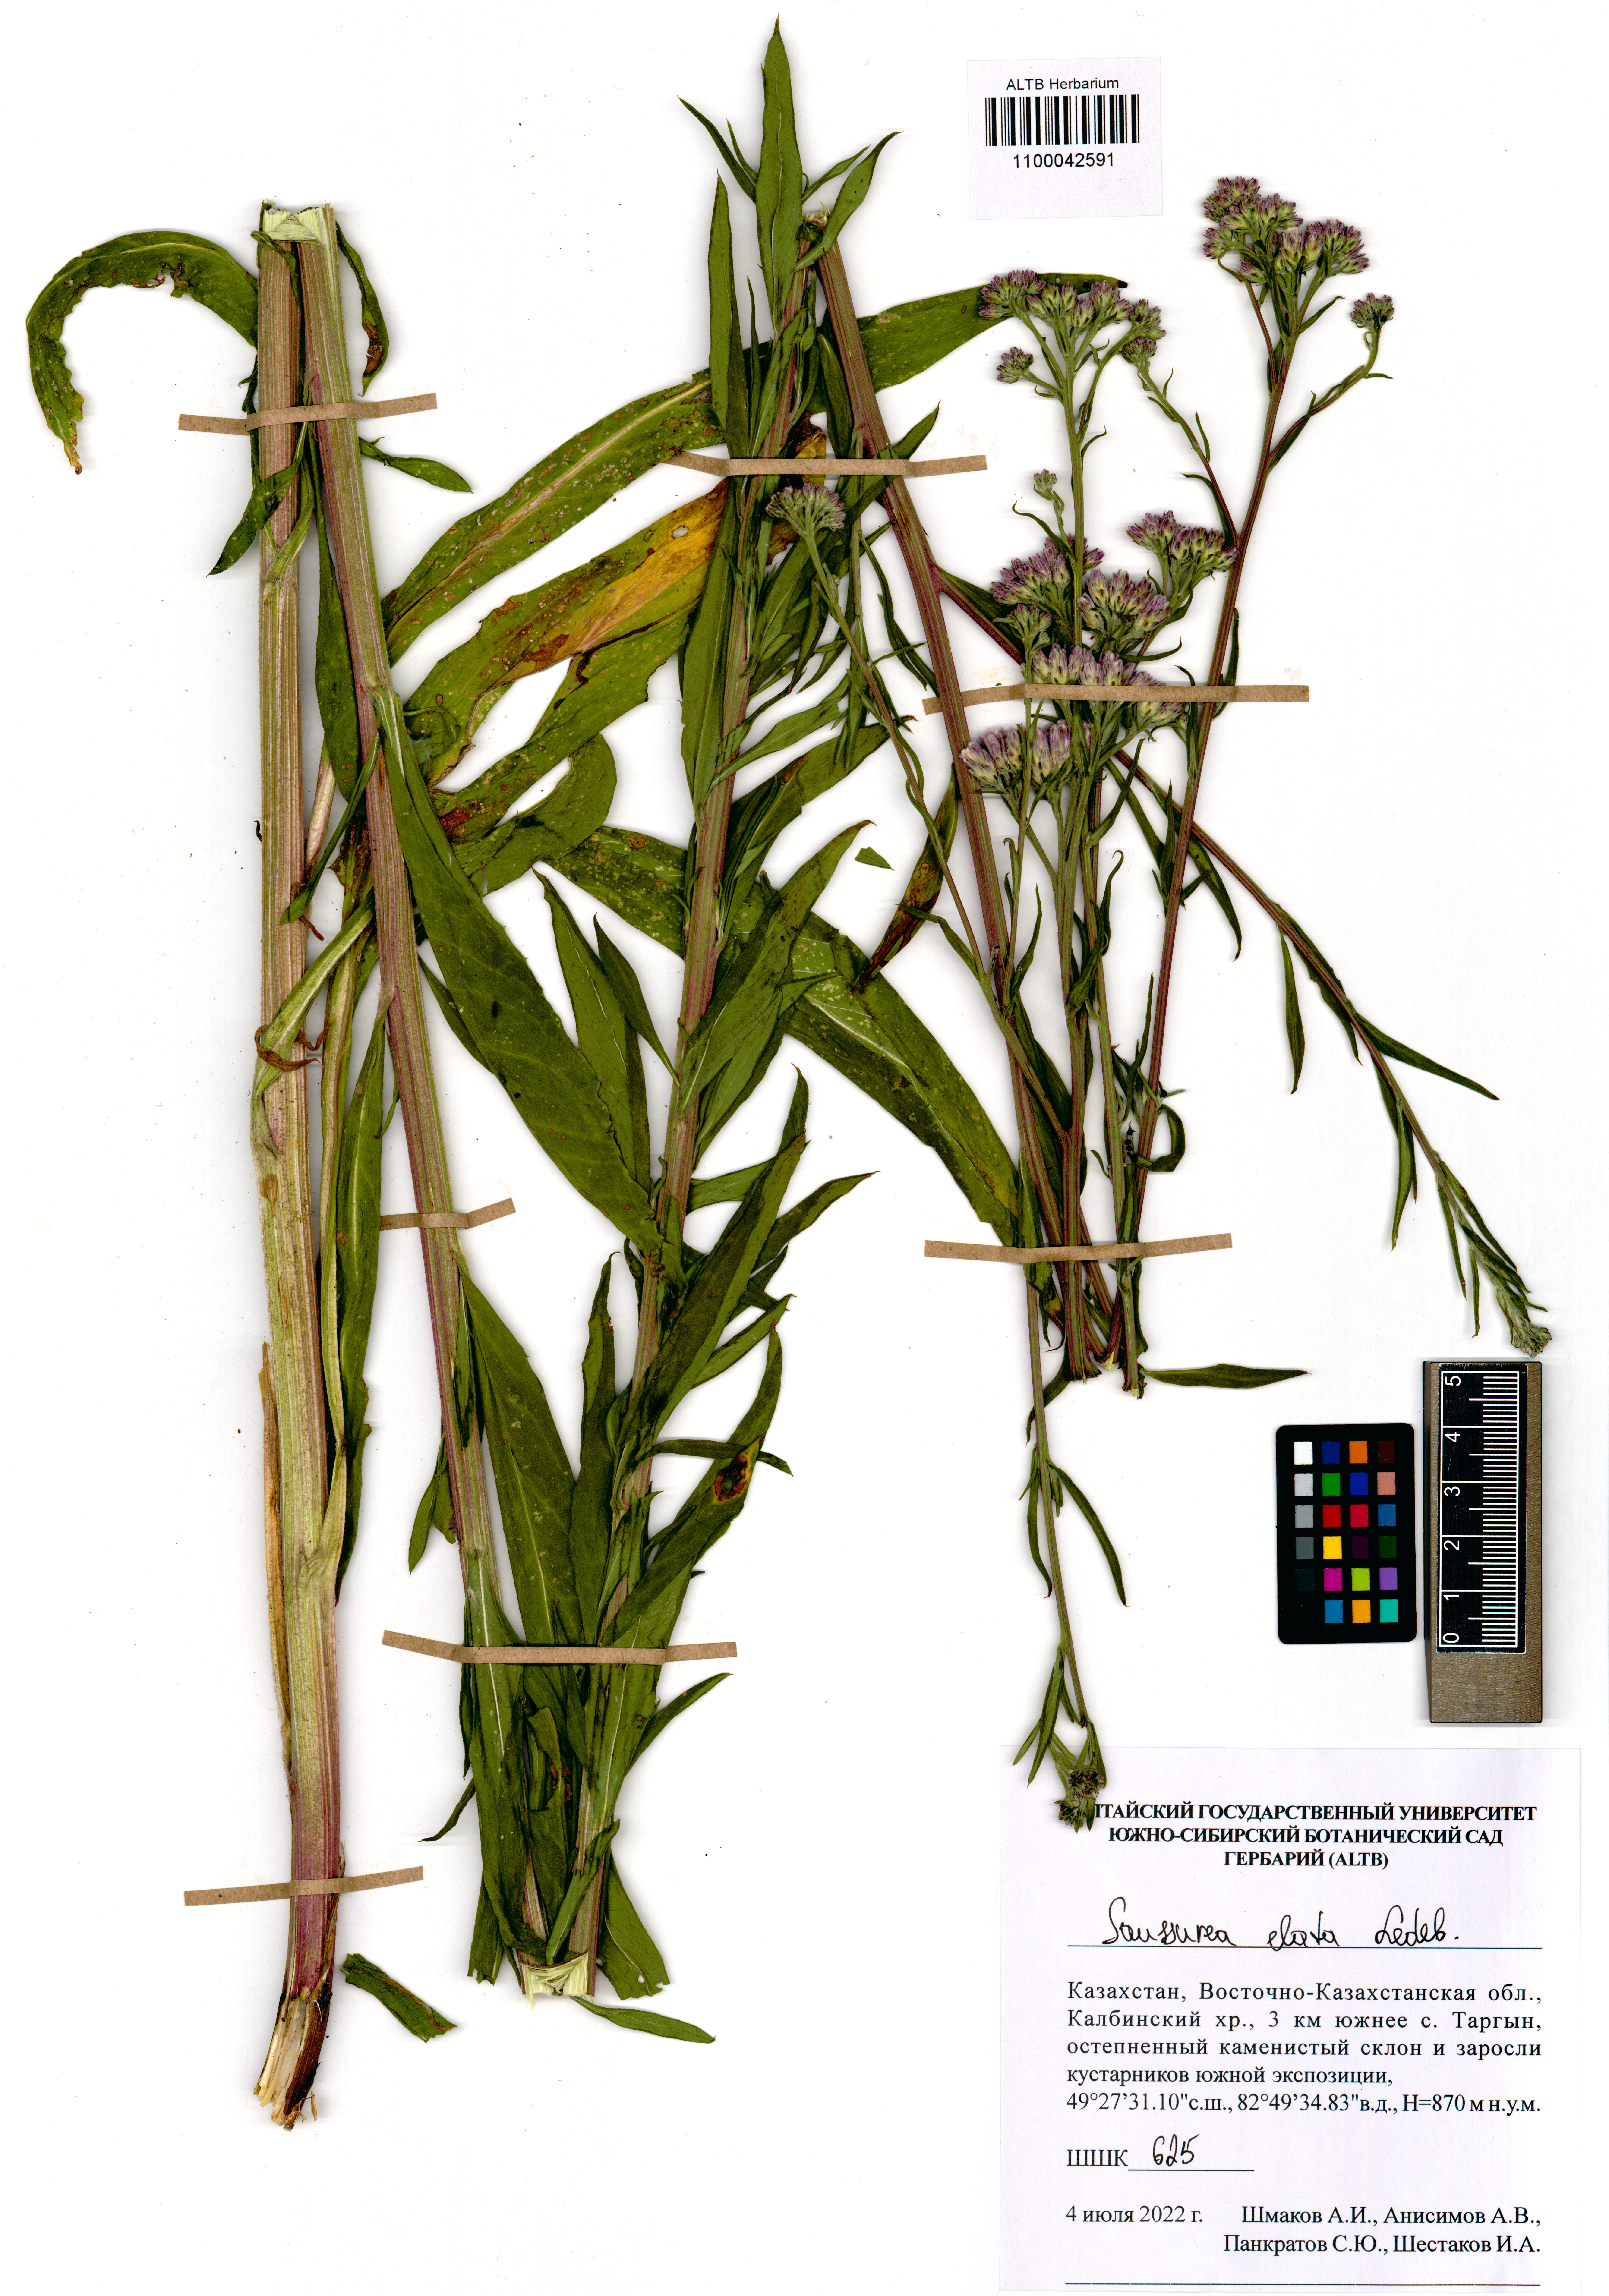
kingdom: Plantae
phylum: Tracheophyta
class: Magnoliopsida
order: Asterales
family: Asteraceae
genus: Saussurea
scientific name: Saussurea elata
